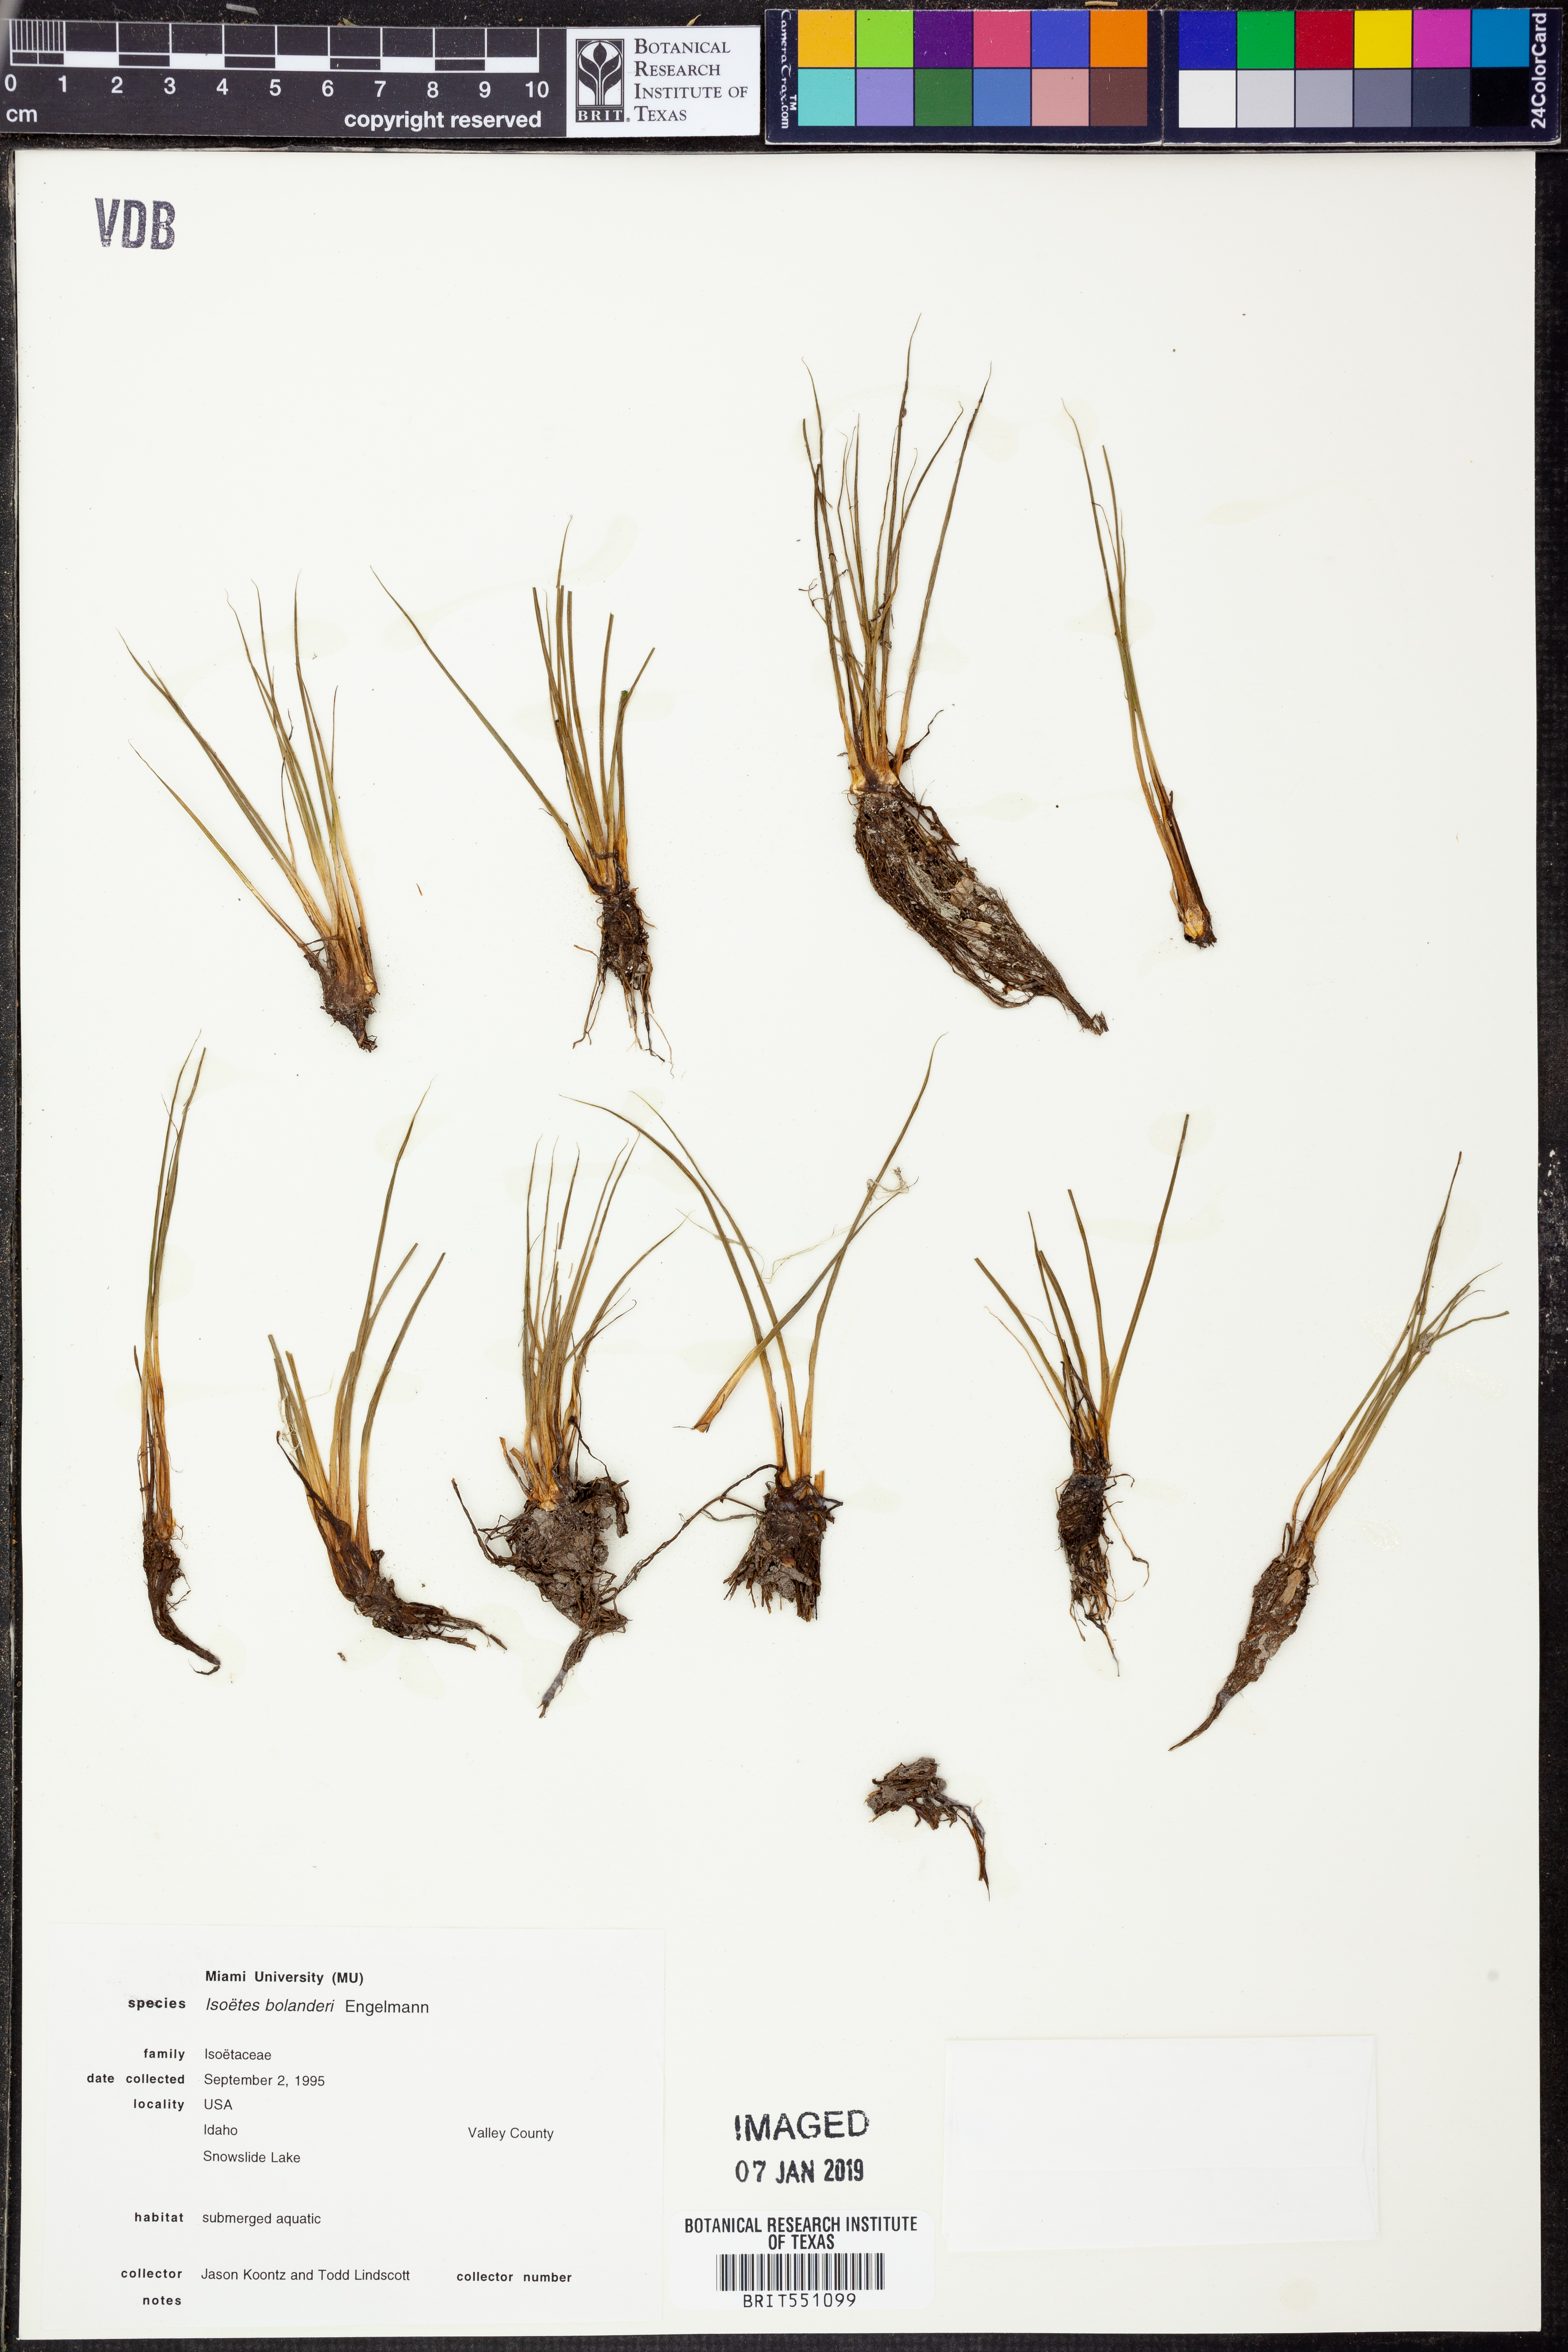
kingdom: Plantae
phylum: Tracheophyta
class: Lycopodiopsida
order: Isoetales
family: Isoetaceae
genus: Isoetes
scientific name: Isoetes bolanderi
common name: Bolander's quillwort
